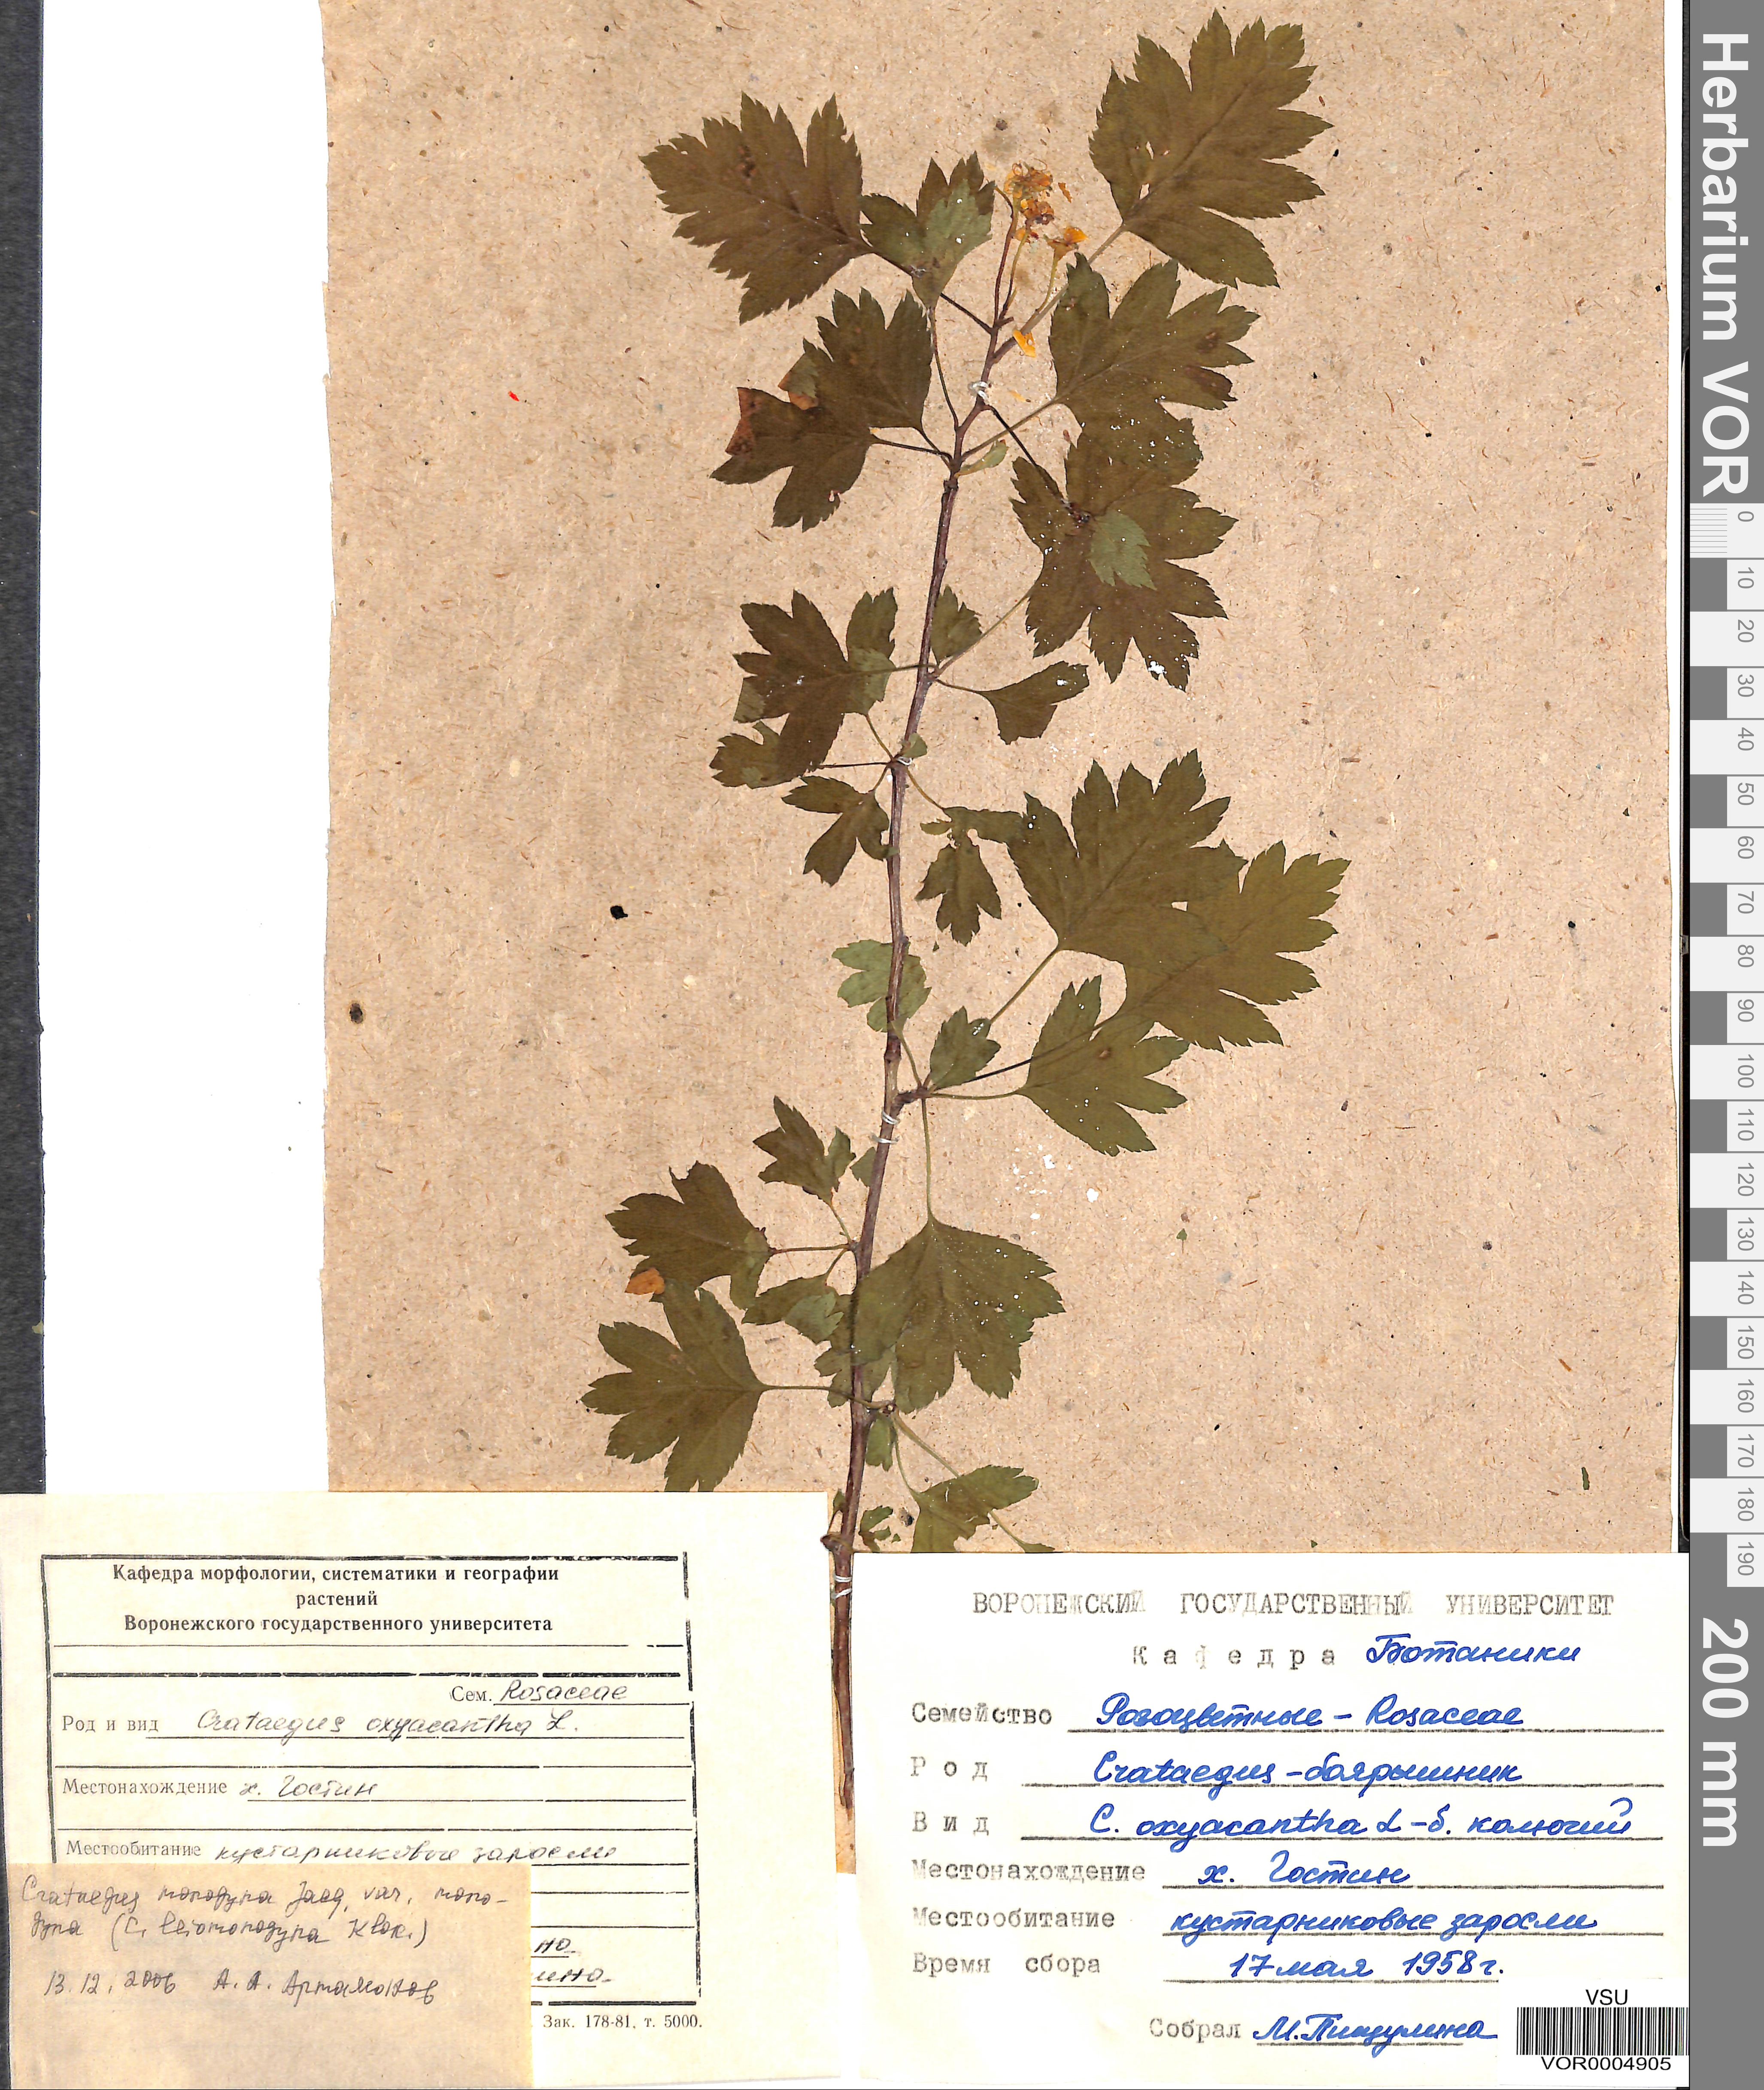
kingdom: Plantae
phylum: Tracheophyta
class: Magnoliopsida
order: Rosales
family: Rosaceae
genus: Crataegus
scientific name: Crataegus monogyna
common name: Hawthorn
